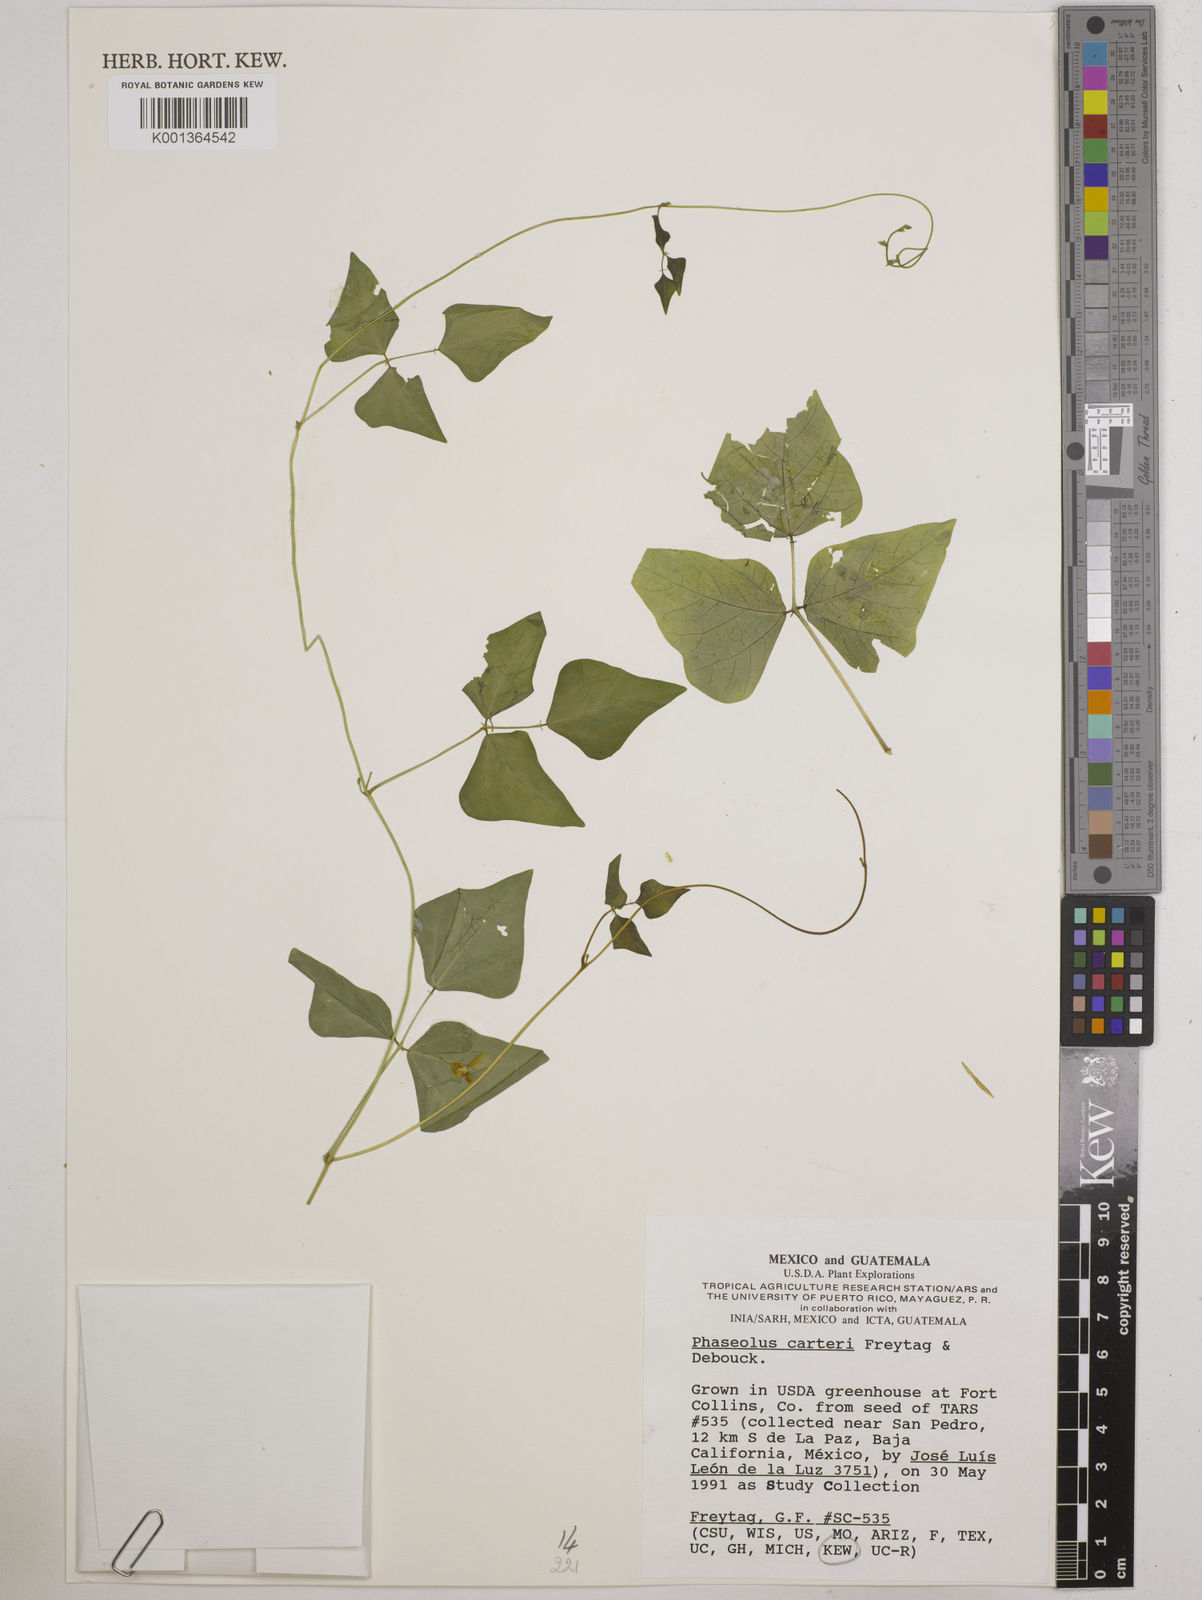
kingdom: Plantae
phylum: Tracheophyta
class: Magnoliopsida
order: Fabales
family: Fabaceae
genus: Phaseolus
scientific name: Phaseolus carterae
